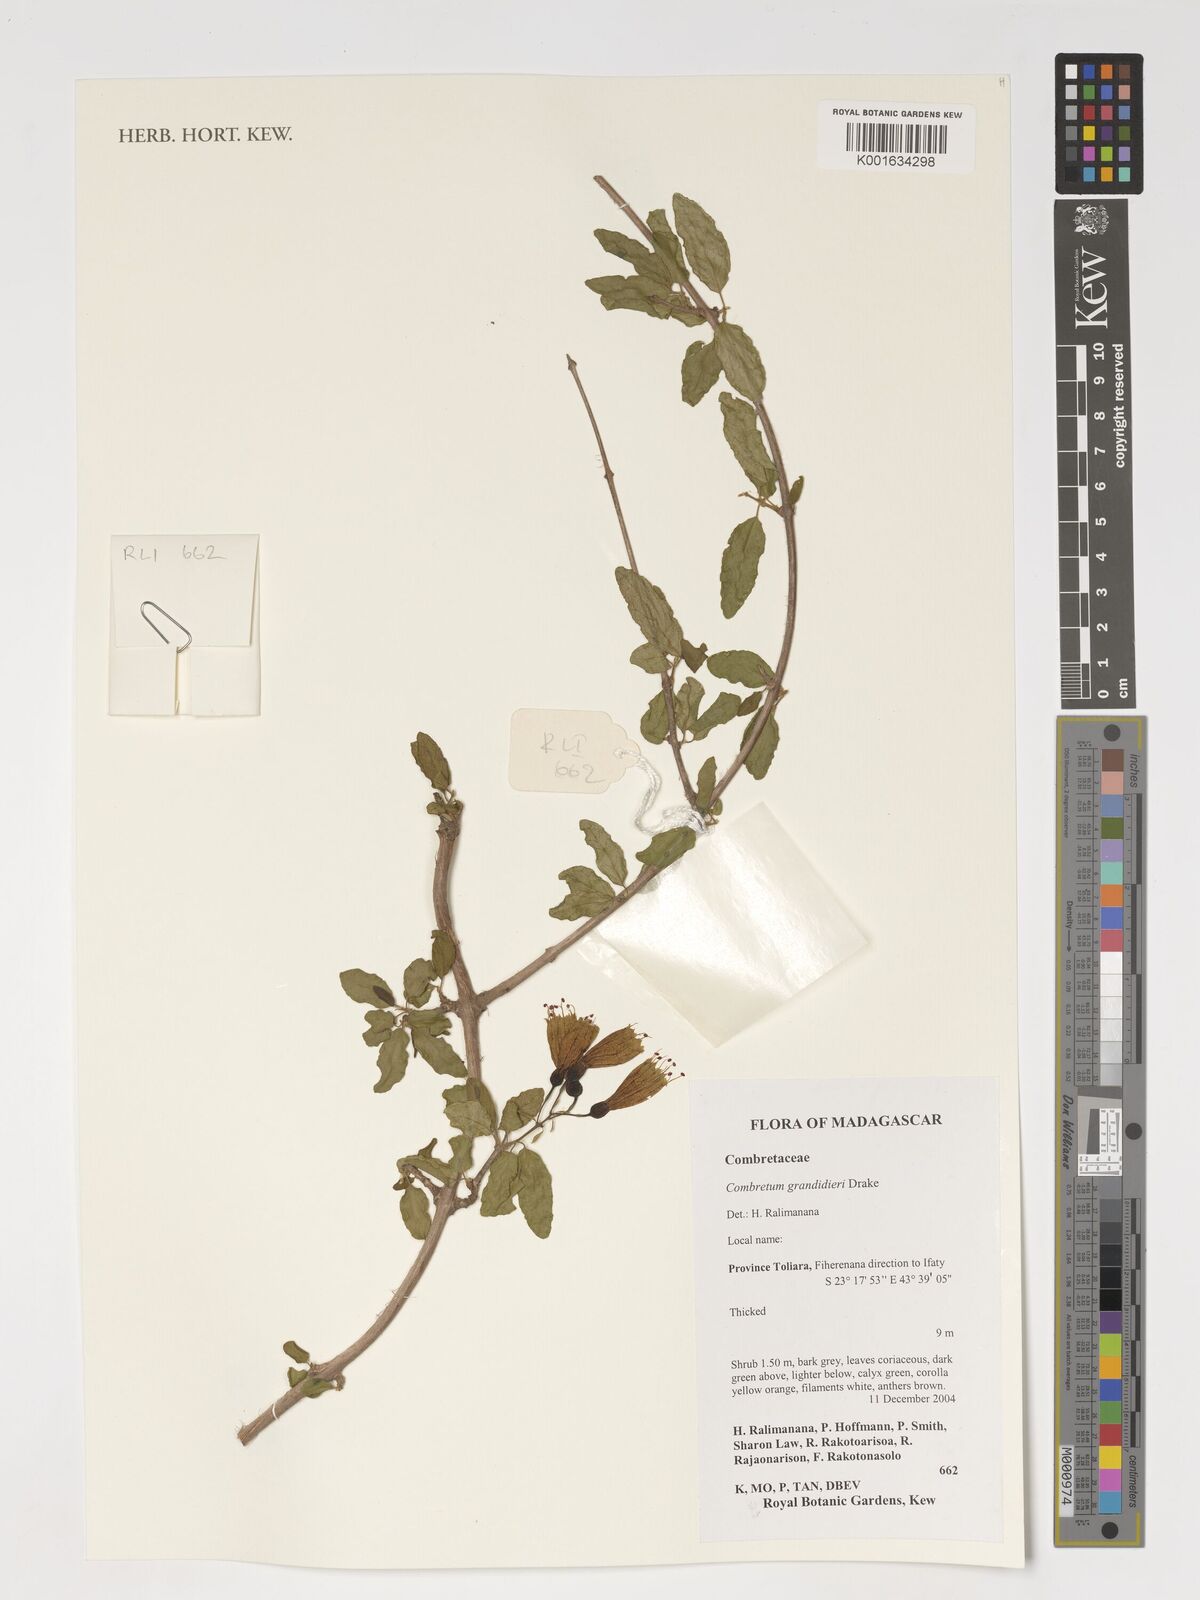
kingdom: Plantae
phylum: Tracheophyta
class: Magnoliopsida
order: Myrtales
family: Combretaceae
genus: Combretum
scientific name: Combretum grandidieri
